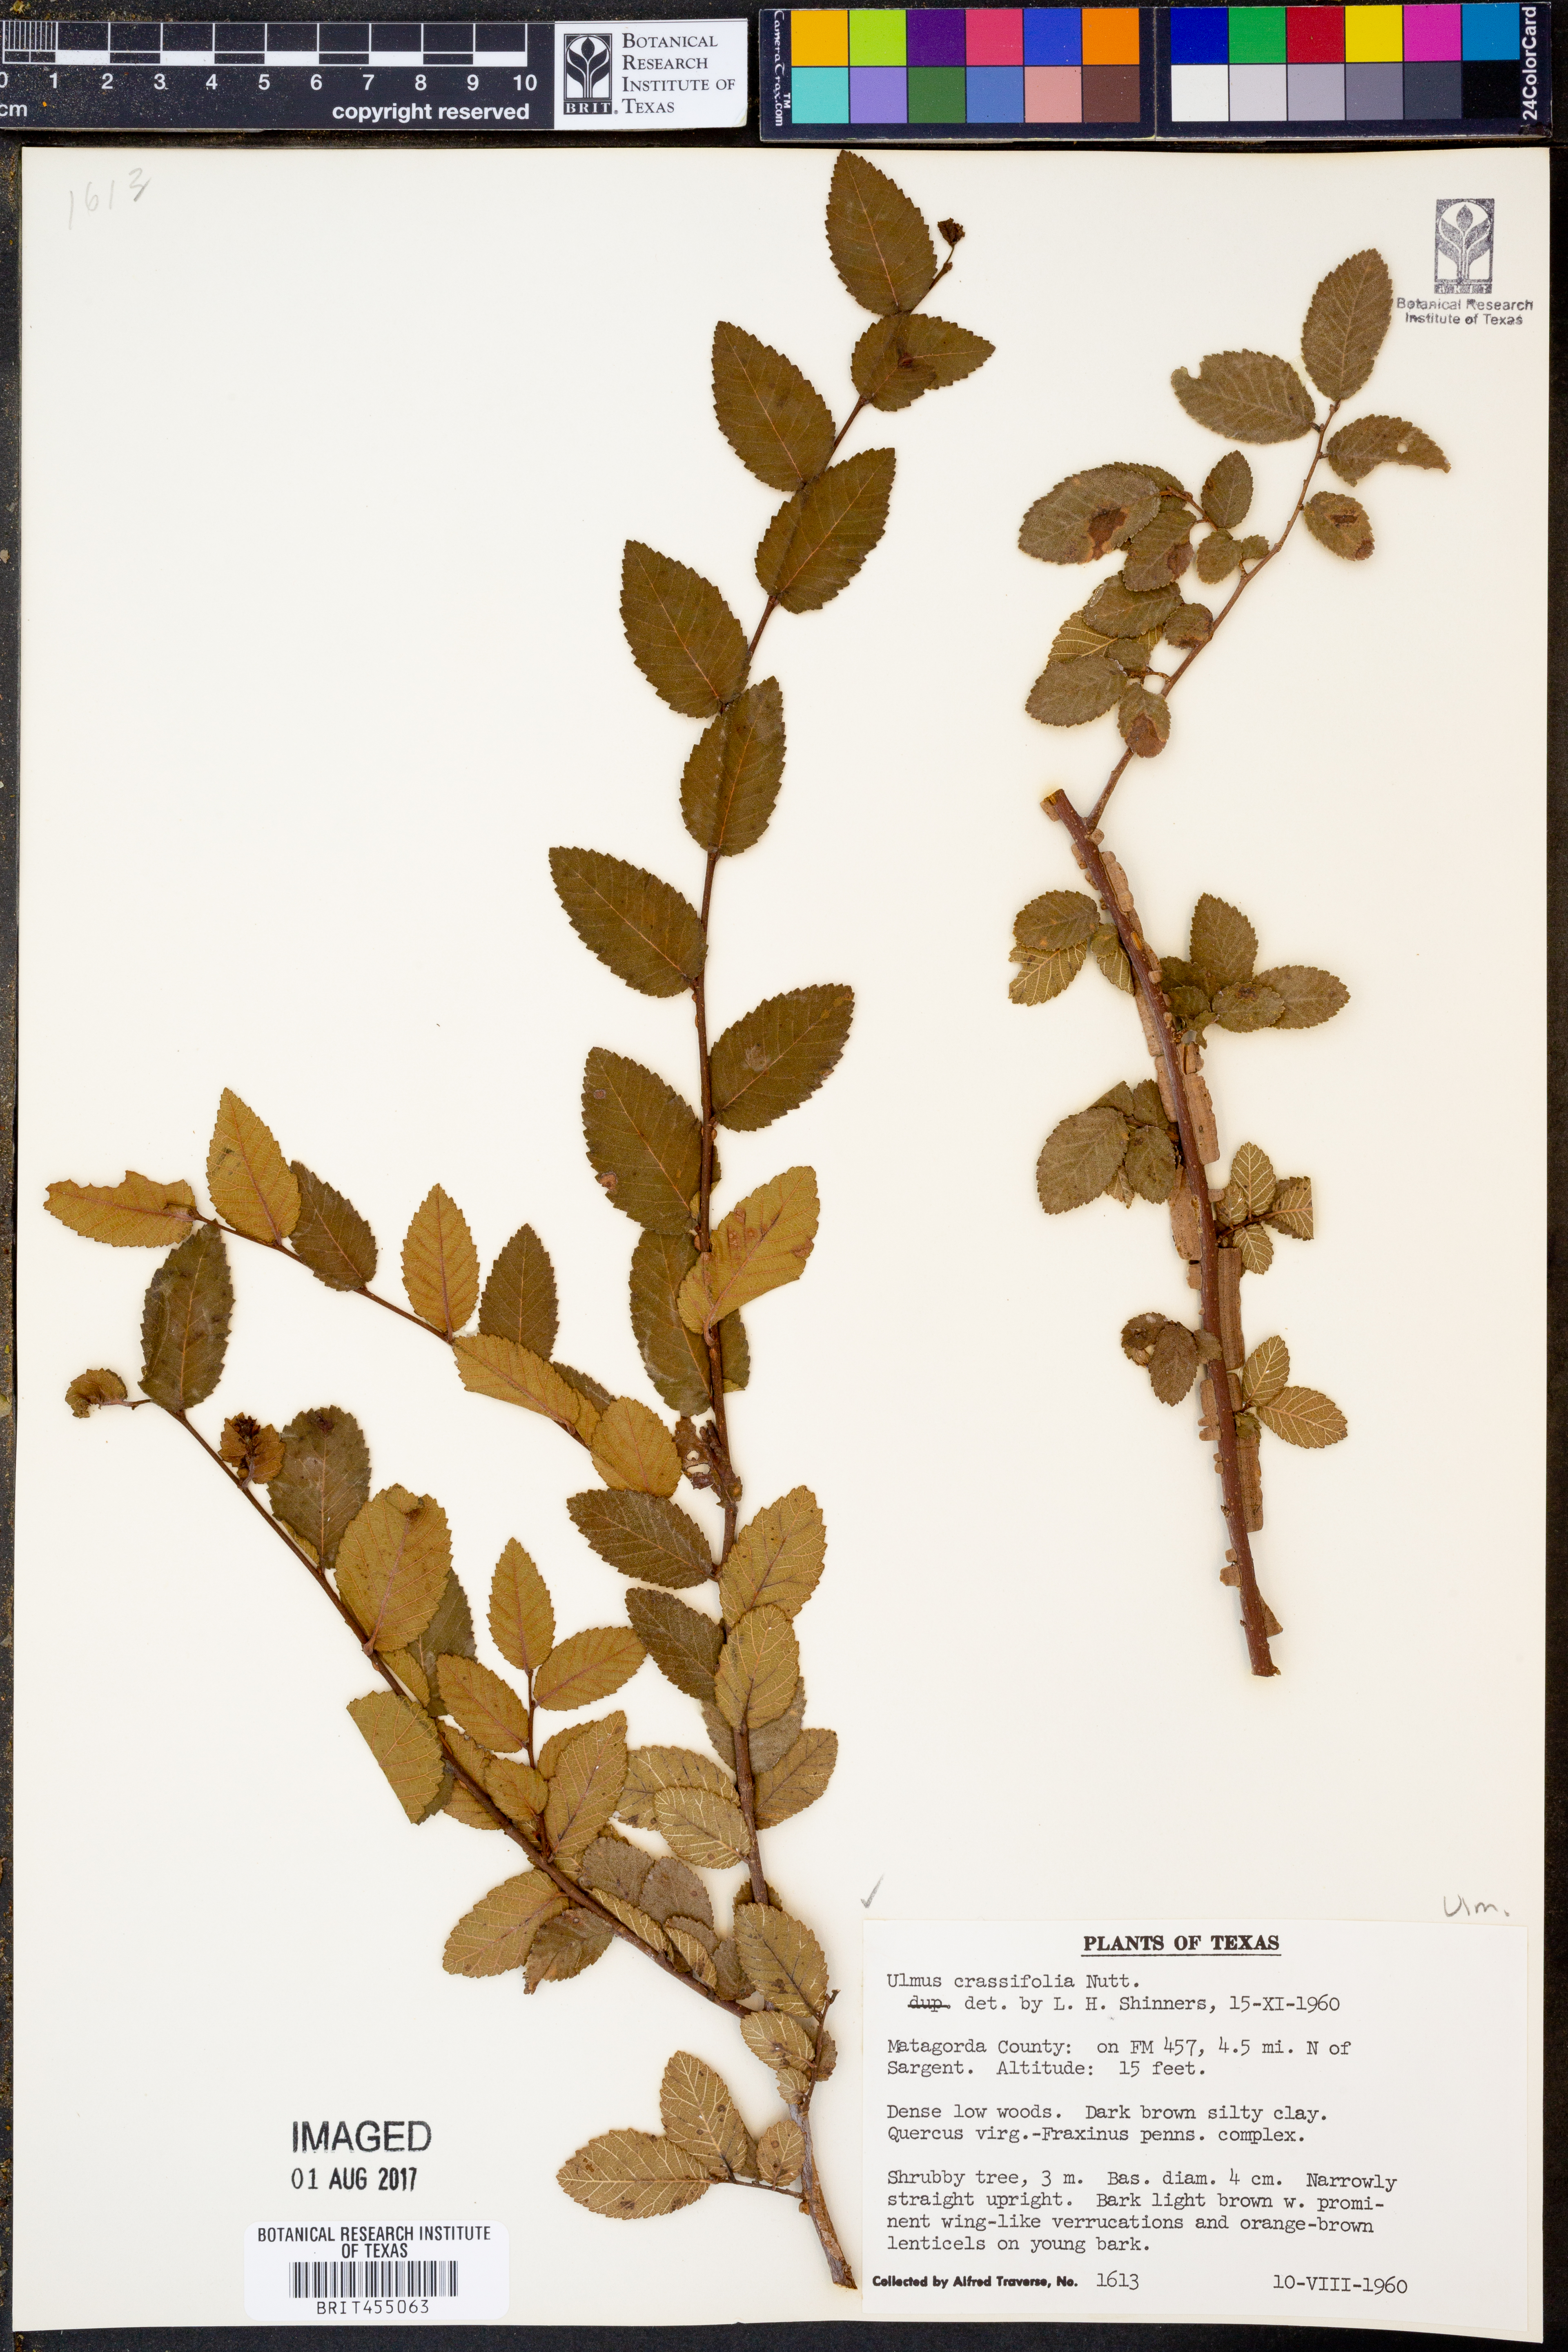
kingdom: Plantae
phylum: Tracheophyta
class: Magnoliopsida
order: Rosales
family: Ulmaceae
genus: Ulmus
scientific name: Ulmus crassifolia
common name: Basket elm
